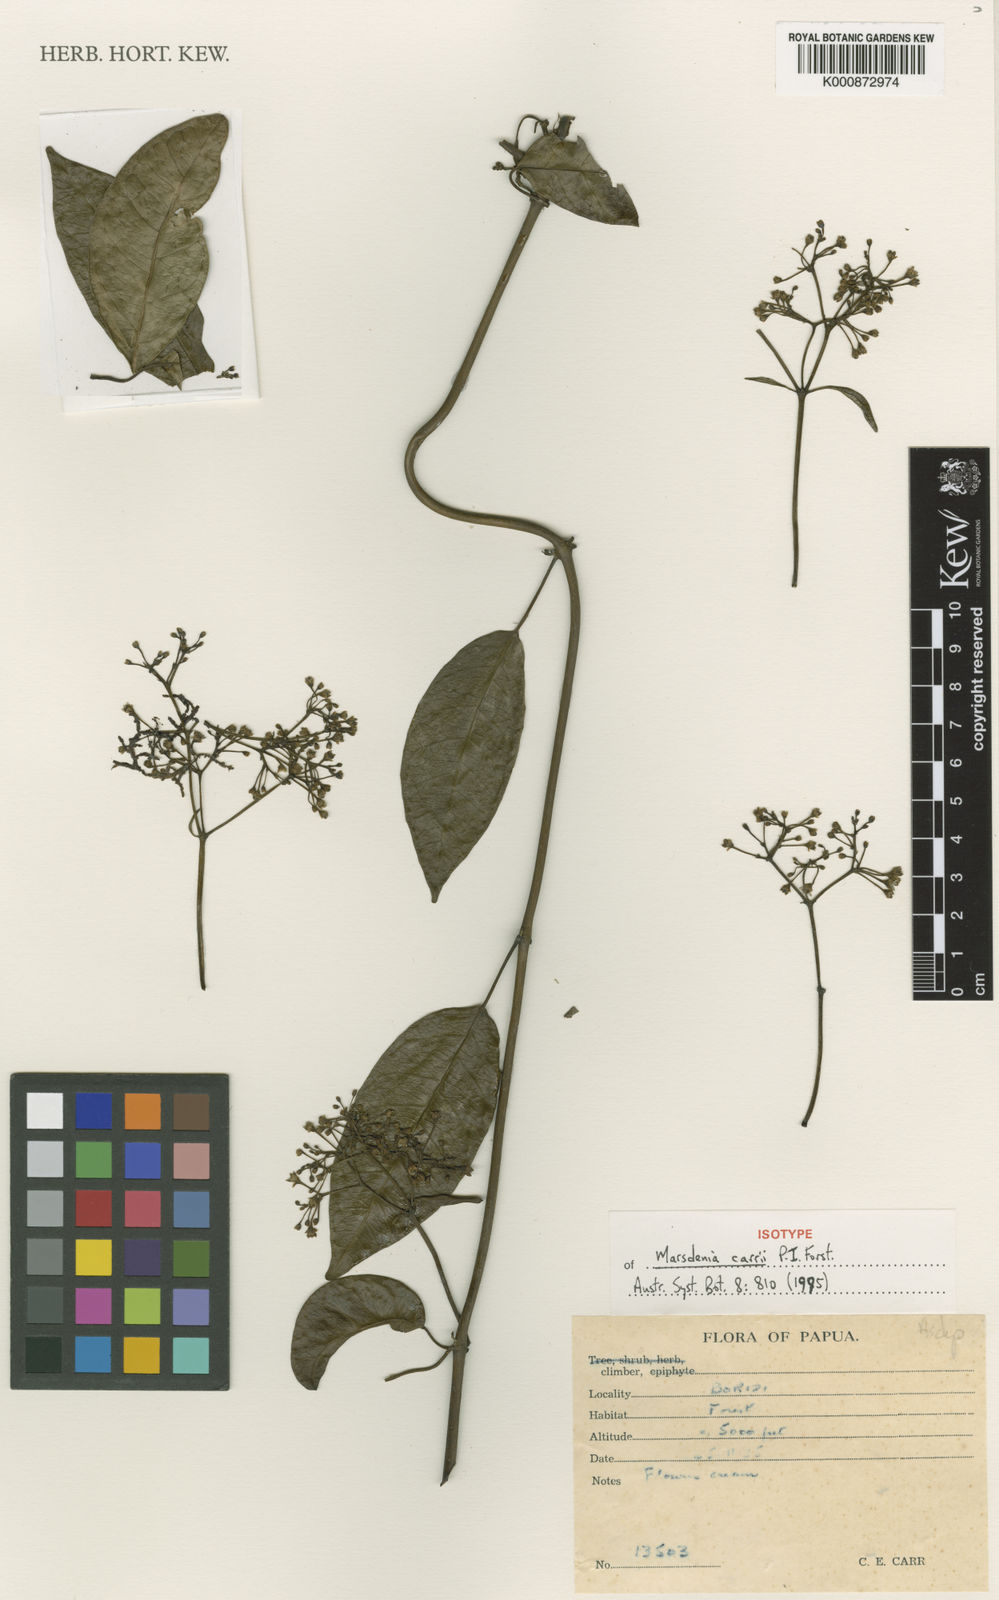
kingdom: Plantae
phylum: Tracheophyta
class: Magnoliopsida
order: Gentianales
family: Apocynaceae
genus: Leichhardtia
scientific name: Leichhardtia carrii
